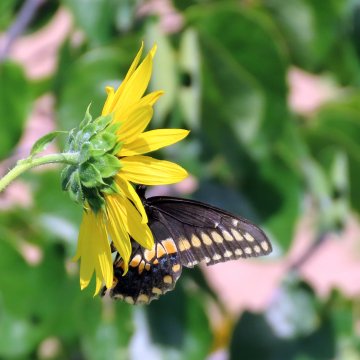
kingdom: Animalia
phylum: Arthropoda
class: Insecta
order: Lepidoptera
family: Papilionidae
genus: Papilio
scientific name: Papilio polyxenes
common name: Black Swallowtail
